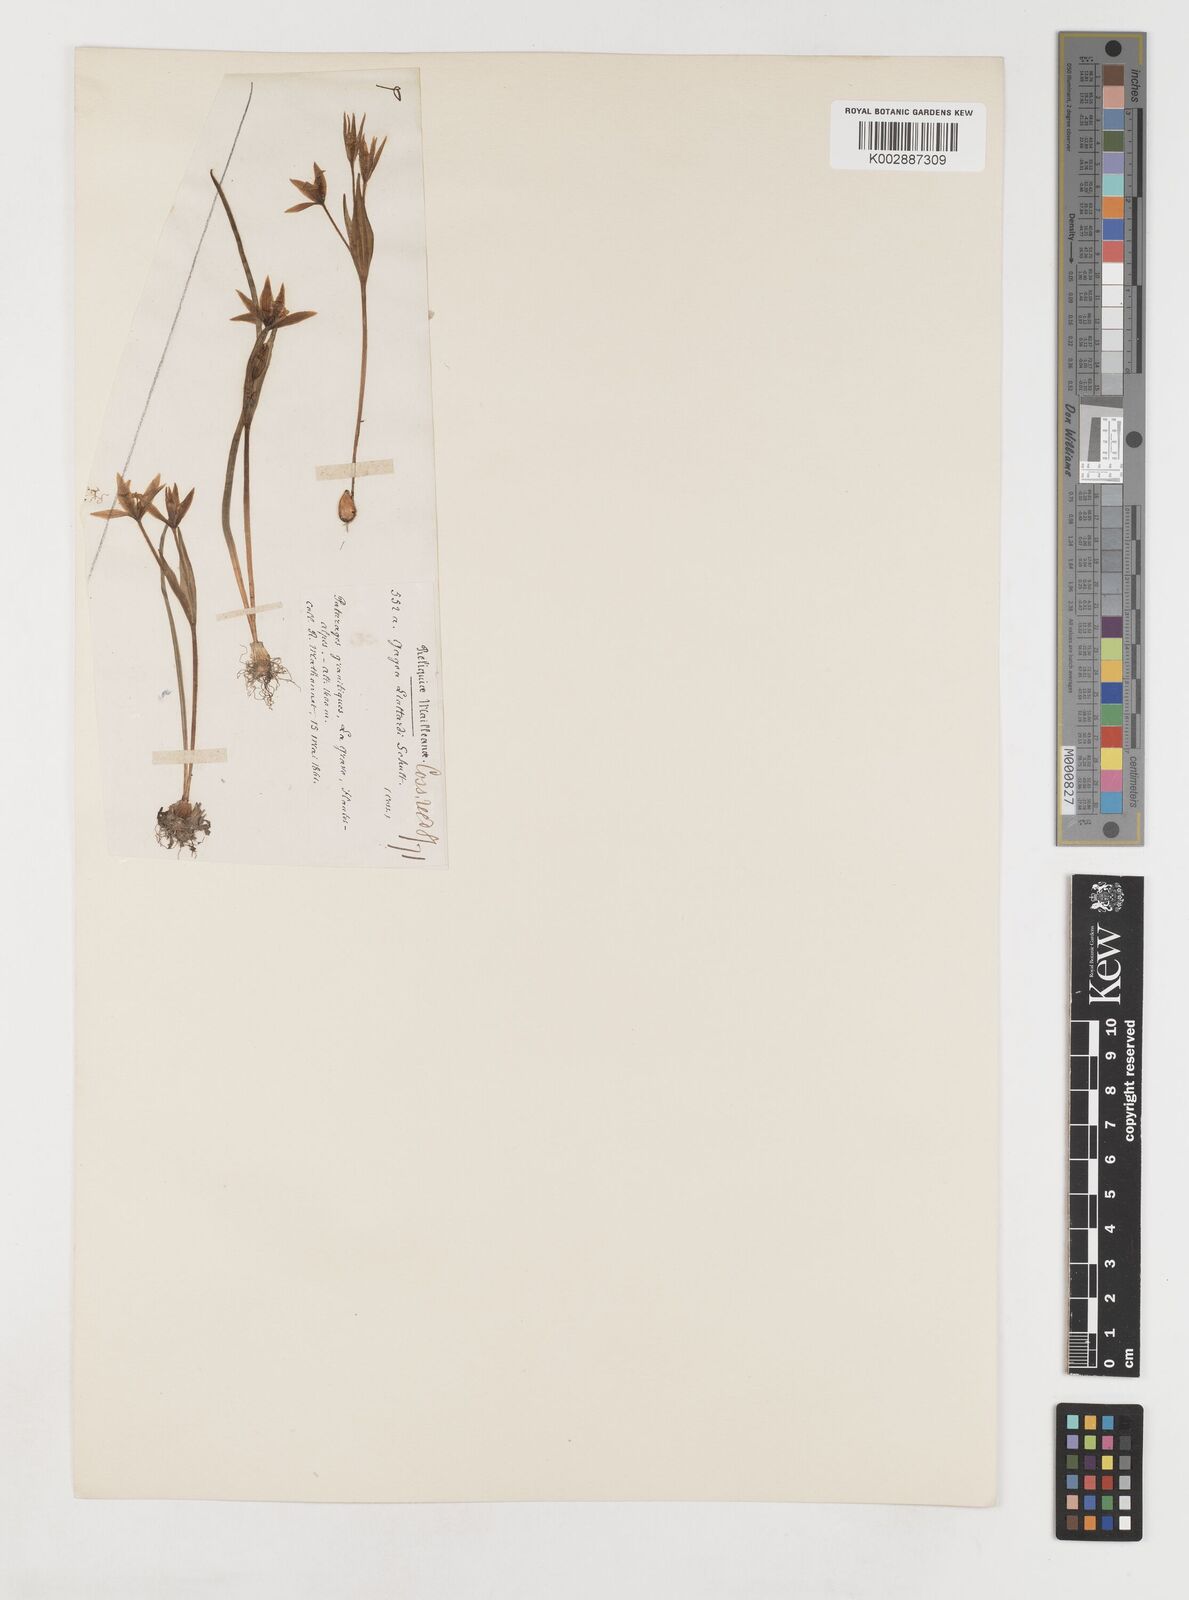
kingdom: Plantae
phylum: Tracheophyta
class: Liliopsida
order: Liliales
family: Liliaceae
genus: Gagea
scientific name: Gagea bohemica
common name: Early star-of-bethlehem
